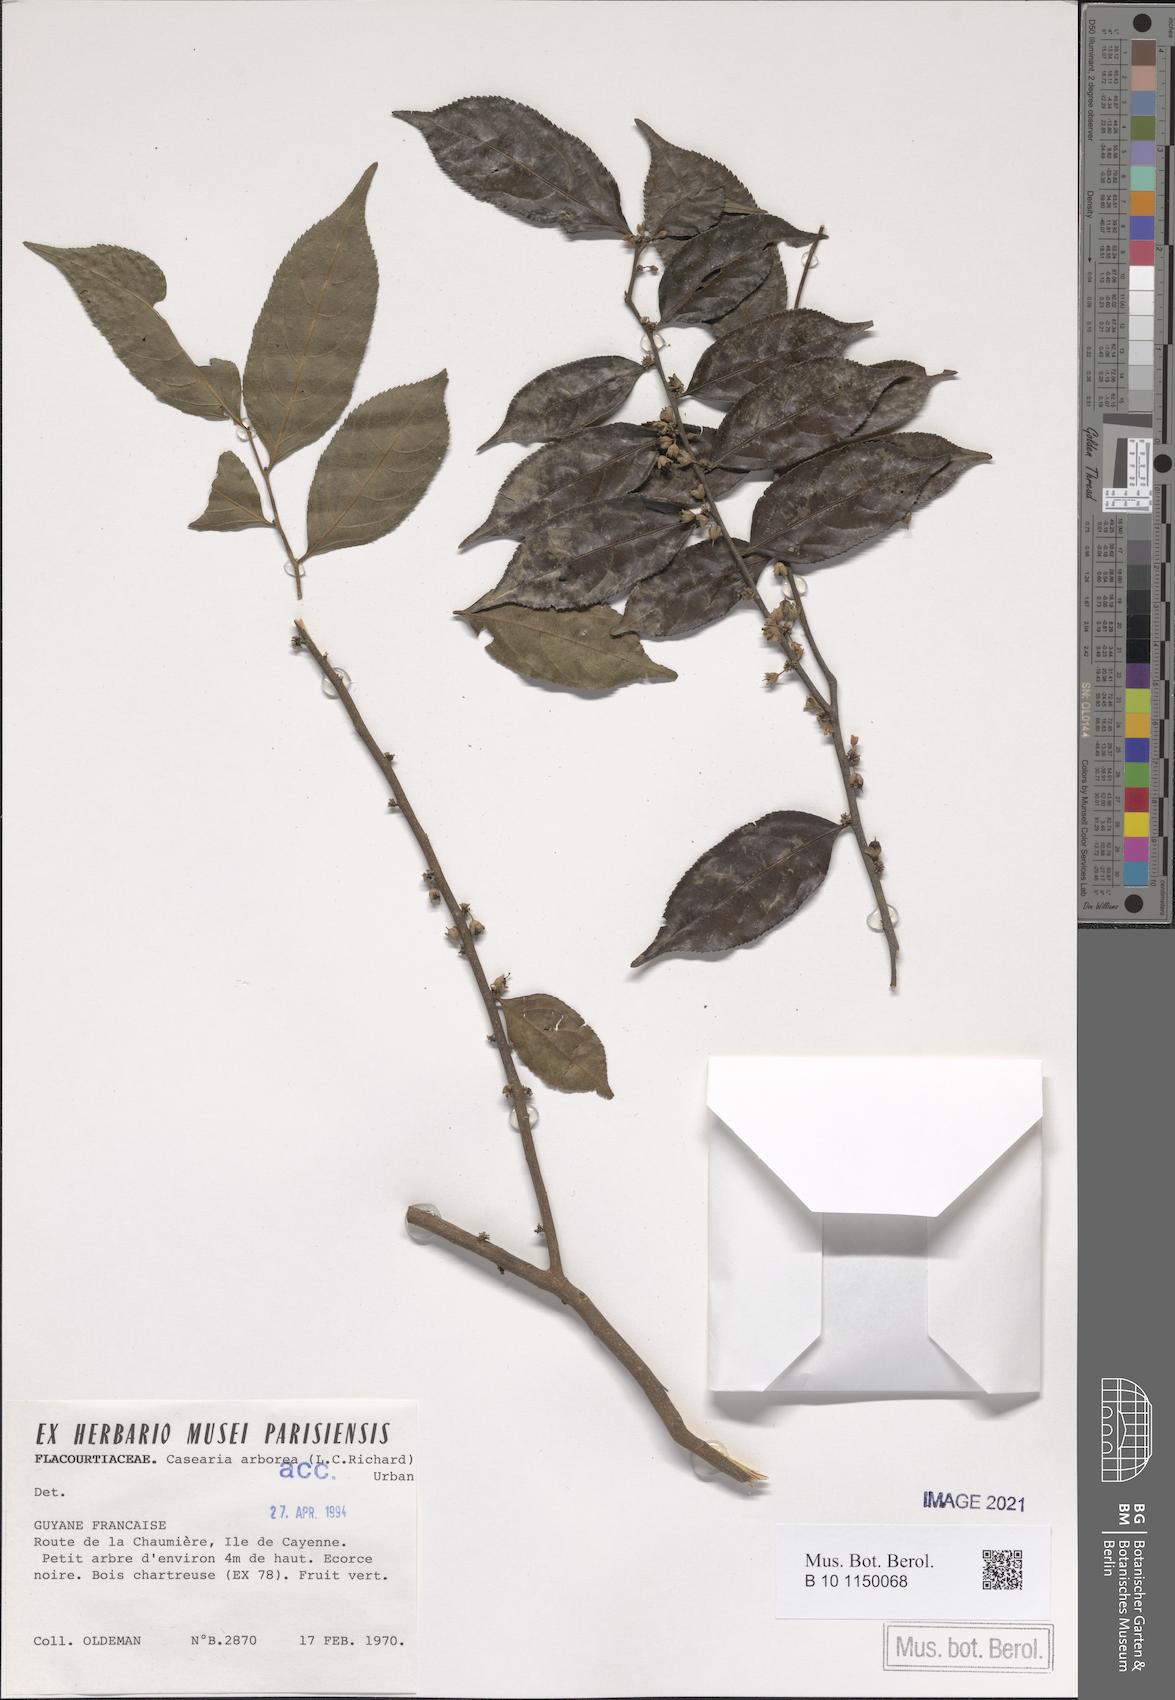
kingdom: Plantae
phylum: Tracheophyta
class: Magnoliopsida
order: Malpighiales
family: Salicaceae
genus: Casearia
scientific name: Casearia arborea
